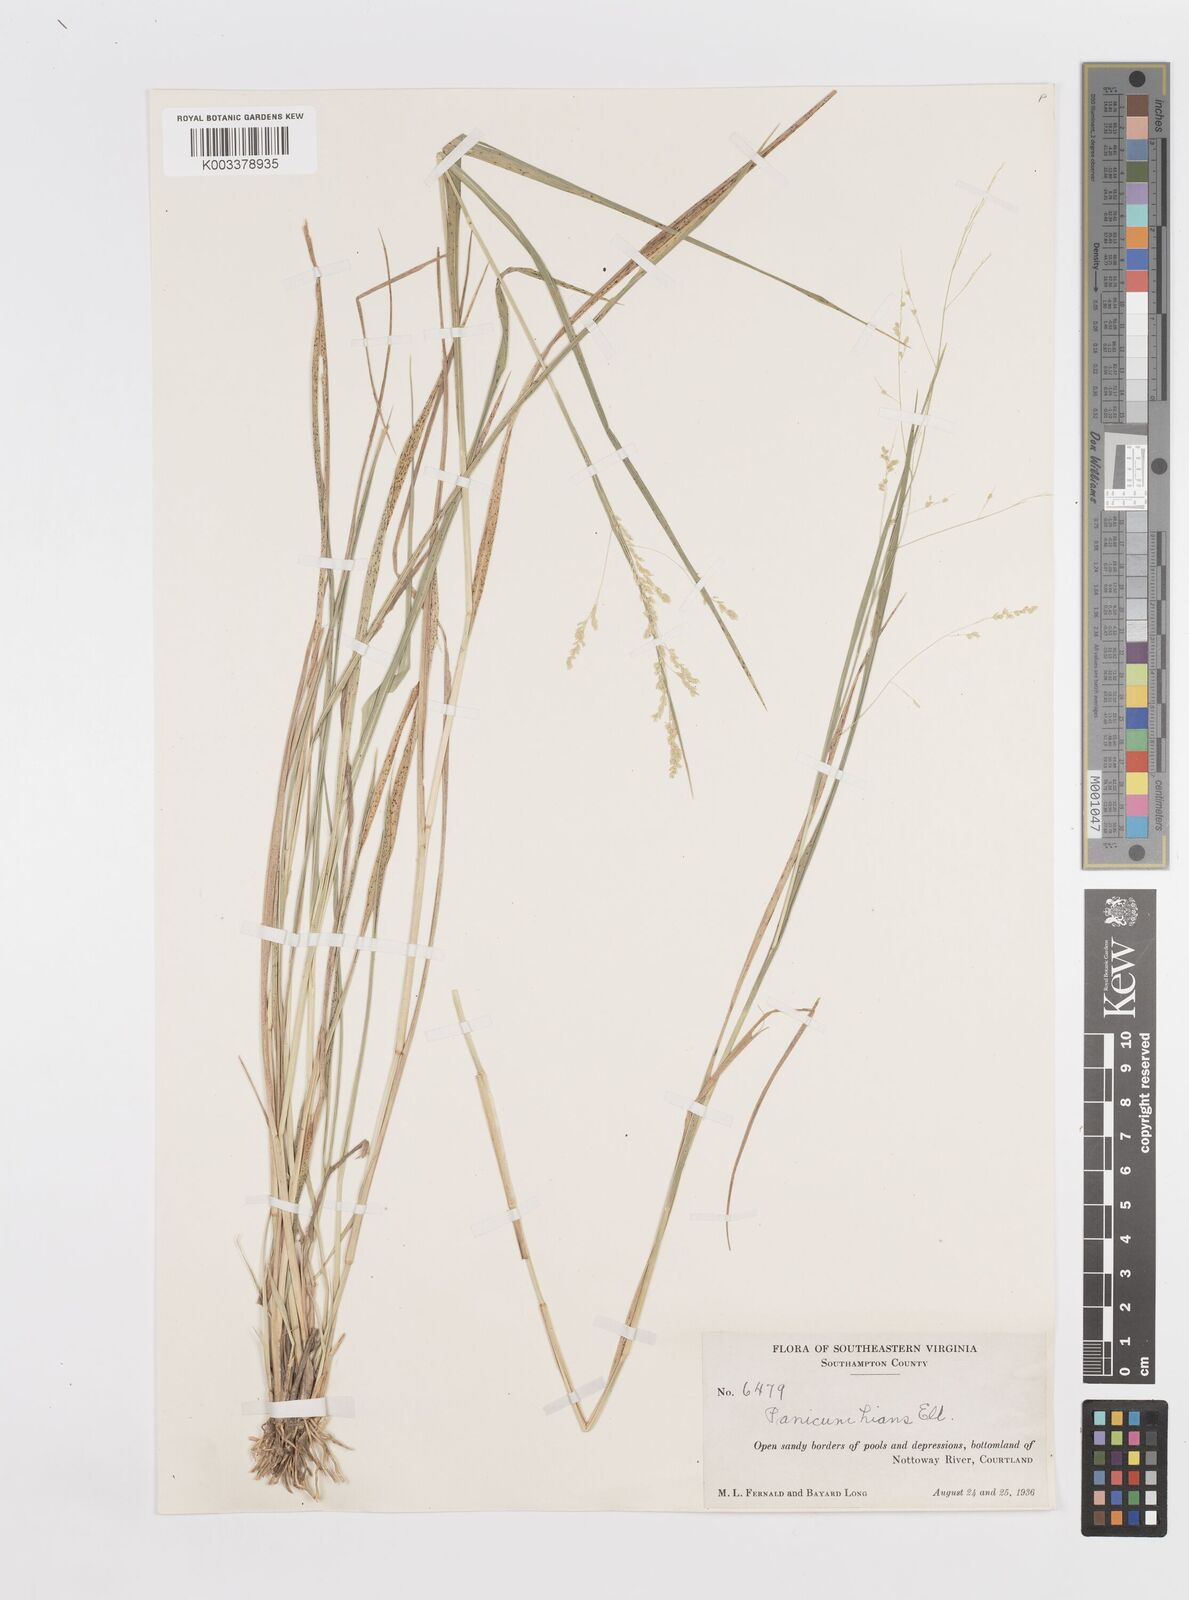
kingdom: Plantae
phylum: Tracheophyta
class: Liliopsida
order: Poales
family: Poaceae
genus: Steinchisma
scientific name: Steinchisma hians
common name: Gaping panic grass
